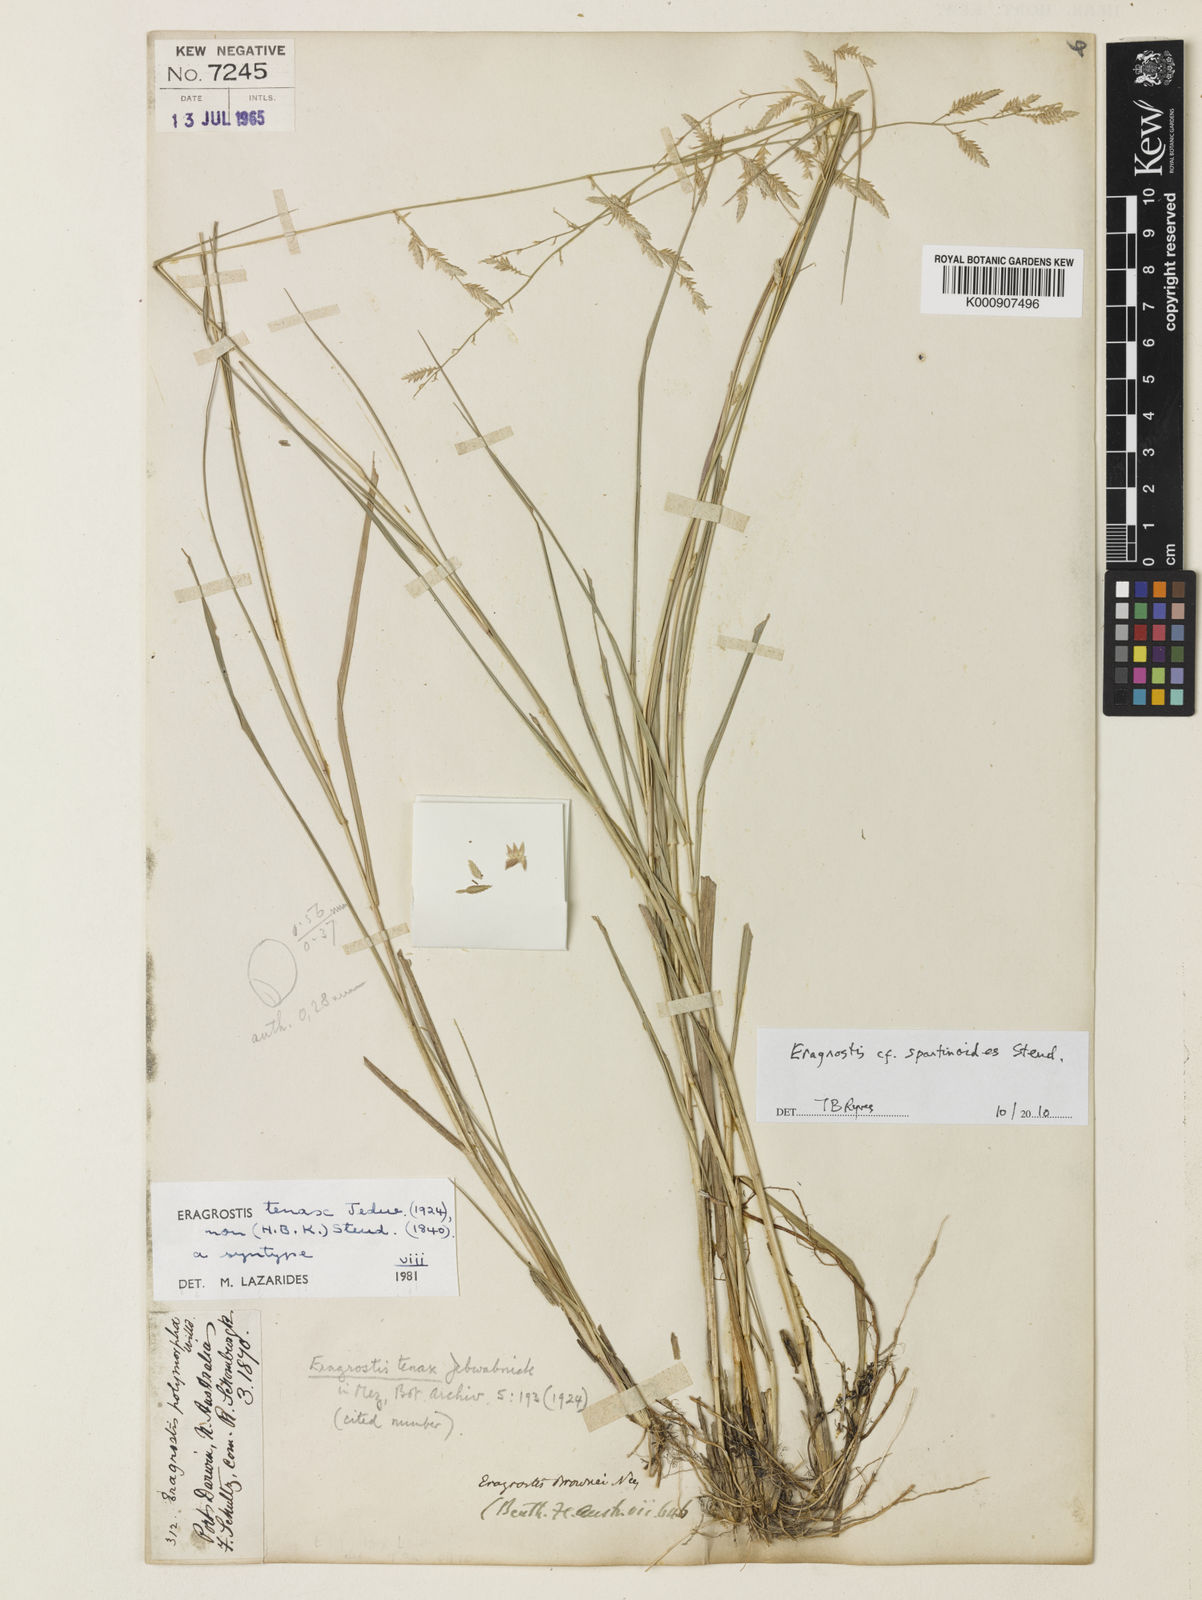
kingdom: Plantae
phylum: Tracheophyta
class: Liliopsida
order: Poales
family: Poaceae
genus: Eragrostis
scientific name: Eragrostis fallax
